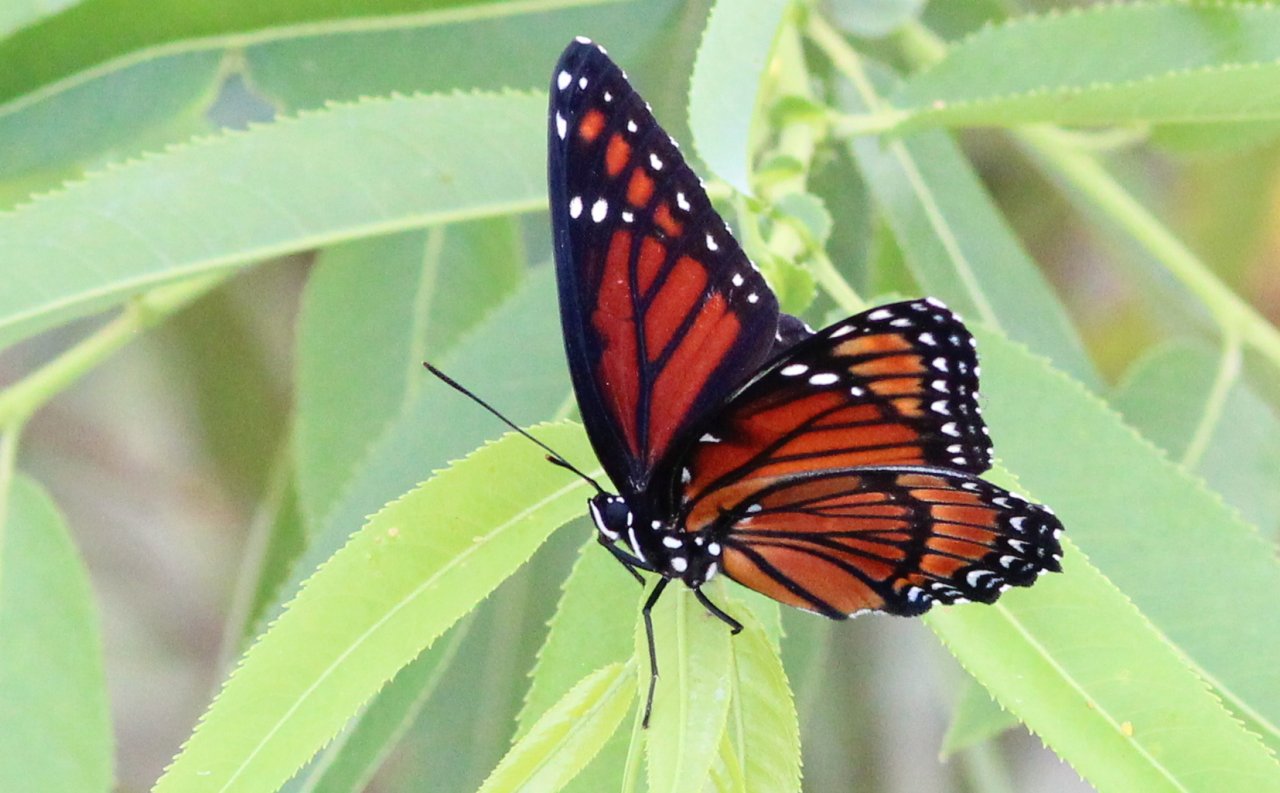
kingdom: Animalia
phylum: Arthropoda
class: Insecta
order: Lepidoptera
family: Nymphalidae
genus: Limenitis
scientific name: Limenitis archippus
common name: Viceroy
